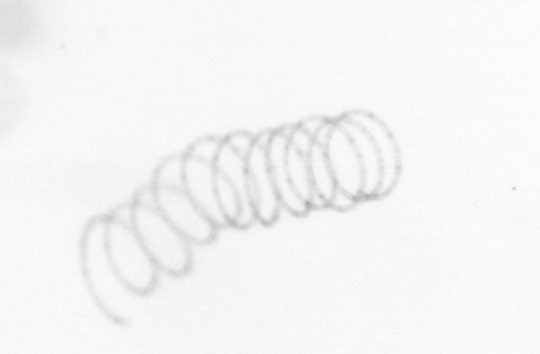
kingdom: Chromista
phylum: Ochrophyta
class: Bacillariophyceae
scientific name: Bacillariophyceae
